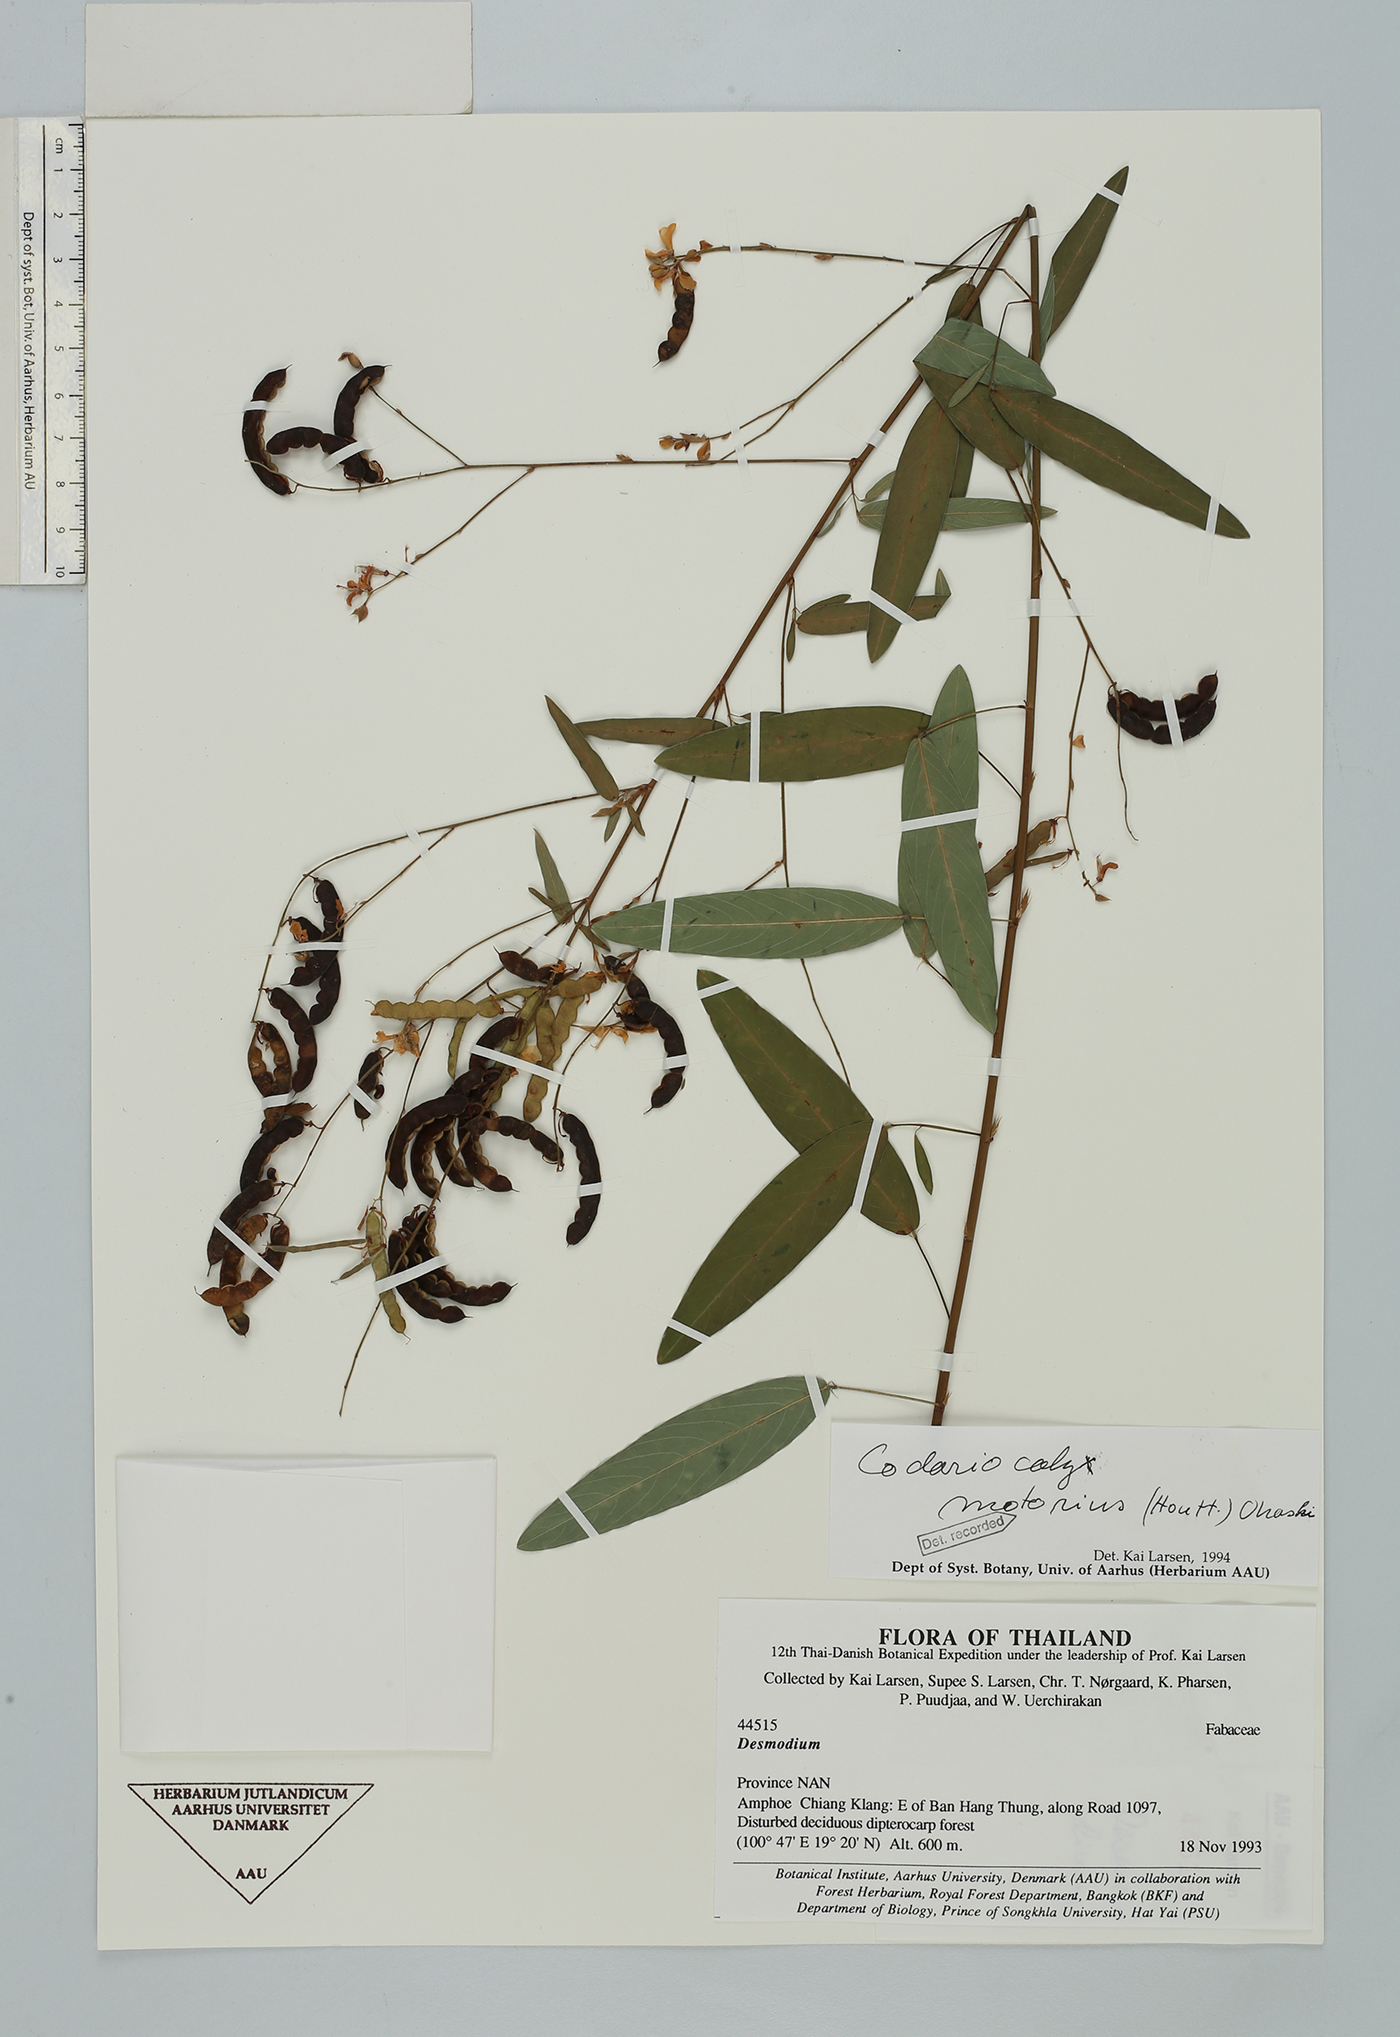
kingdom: Plantae
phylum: Tracheophyta
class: Magnoliopsida
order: Fabales
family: Fabaceae
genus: Codariocalyx
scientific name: Codariocalyx motorius
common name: Telegraph-plant
